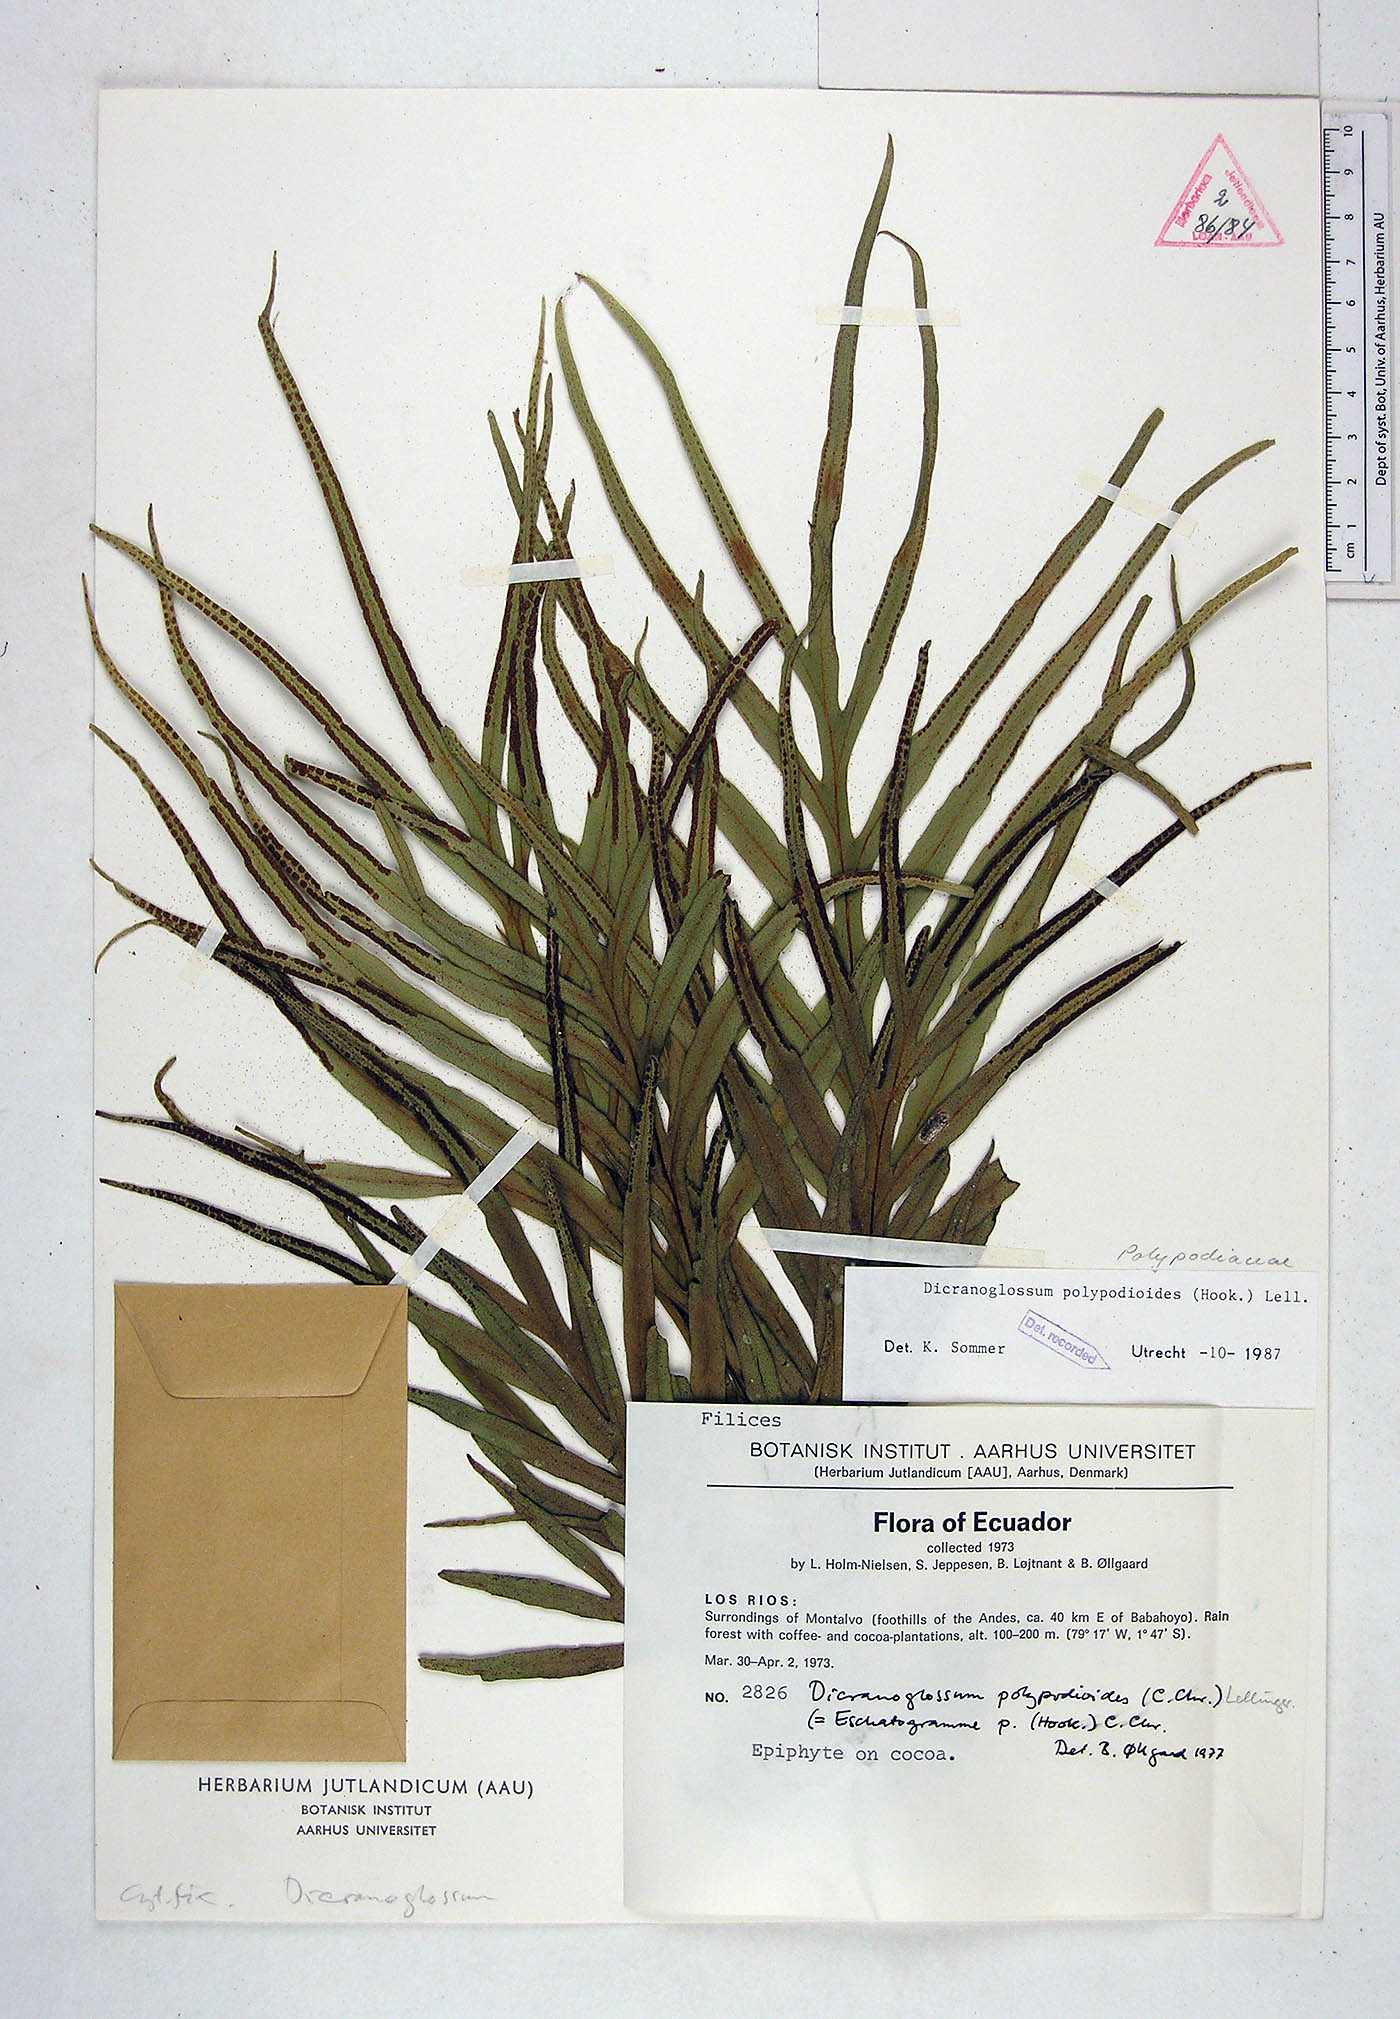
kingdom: Plantae
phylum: Tracheophyta
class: Polypodiopsida
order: Polypodiales
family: Polypodiaceae
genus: Pleopeltis
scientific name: Pleopeltis hookeri
